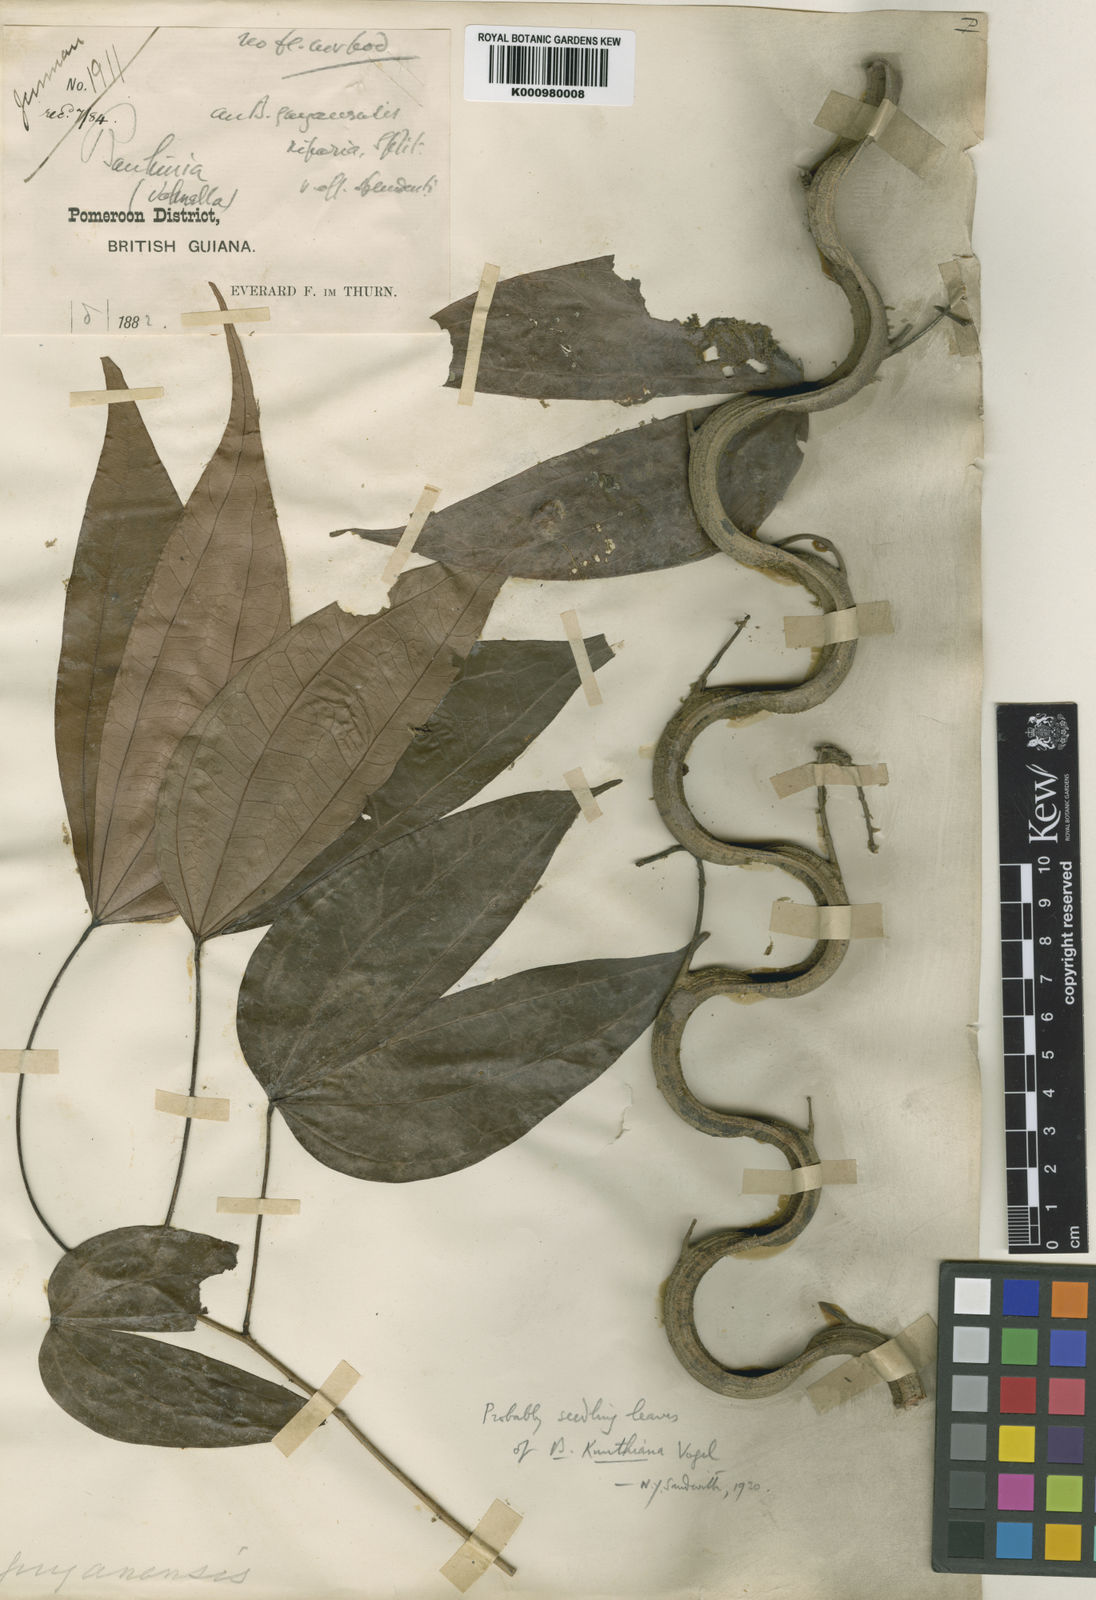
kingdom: Plantae
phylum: Tracheophyta
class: Magnoliopsida
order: Fabales
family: Fabaceae
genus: Schnella
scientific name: Schnella
